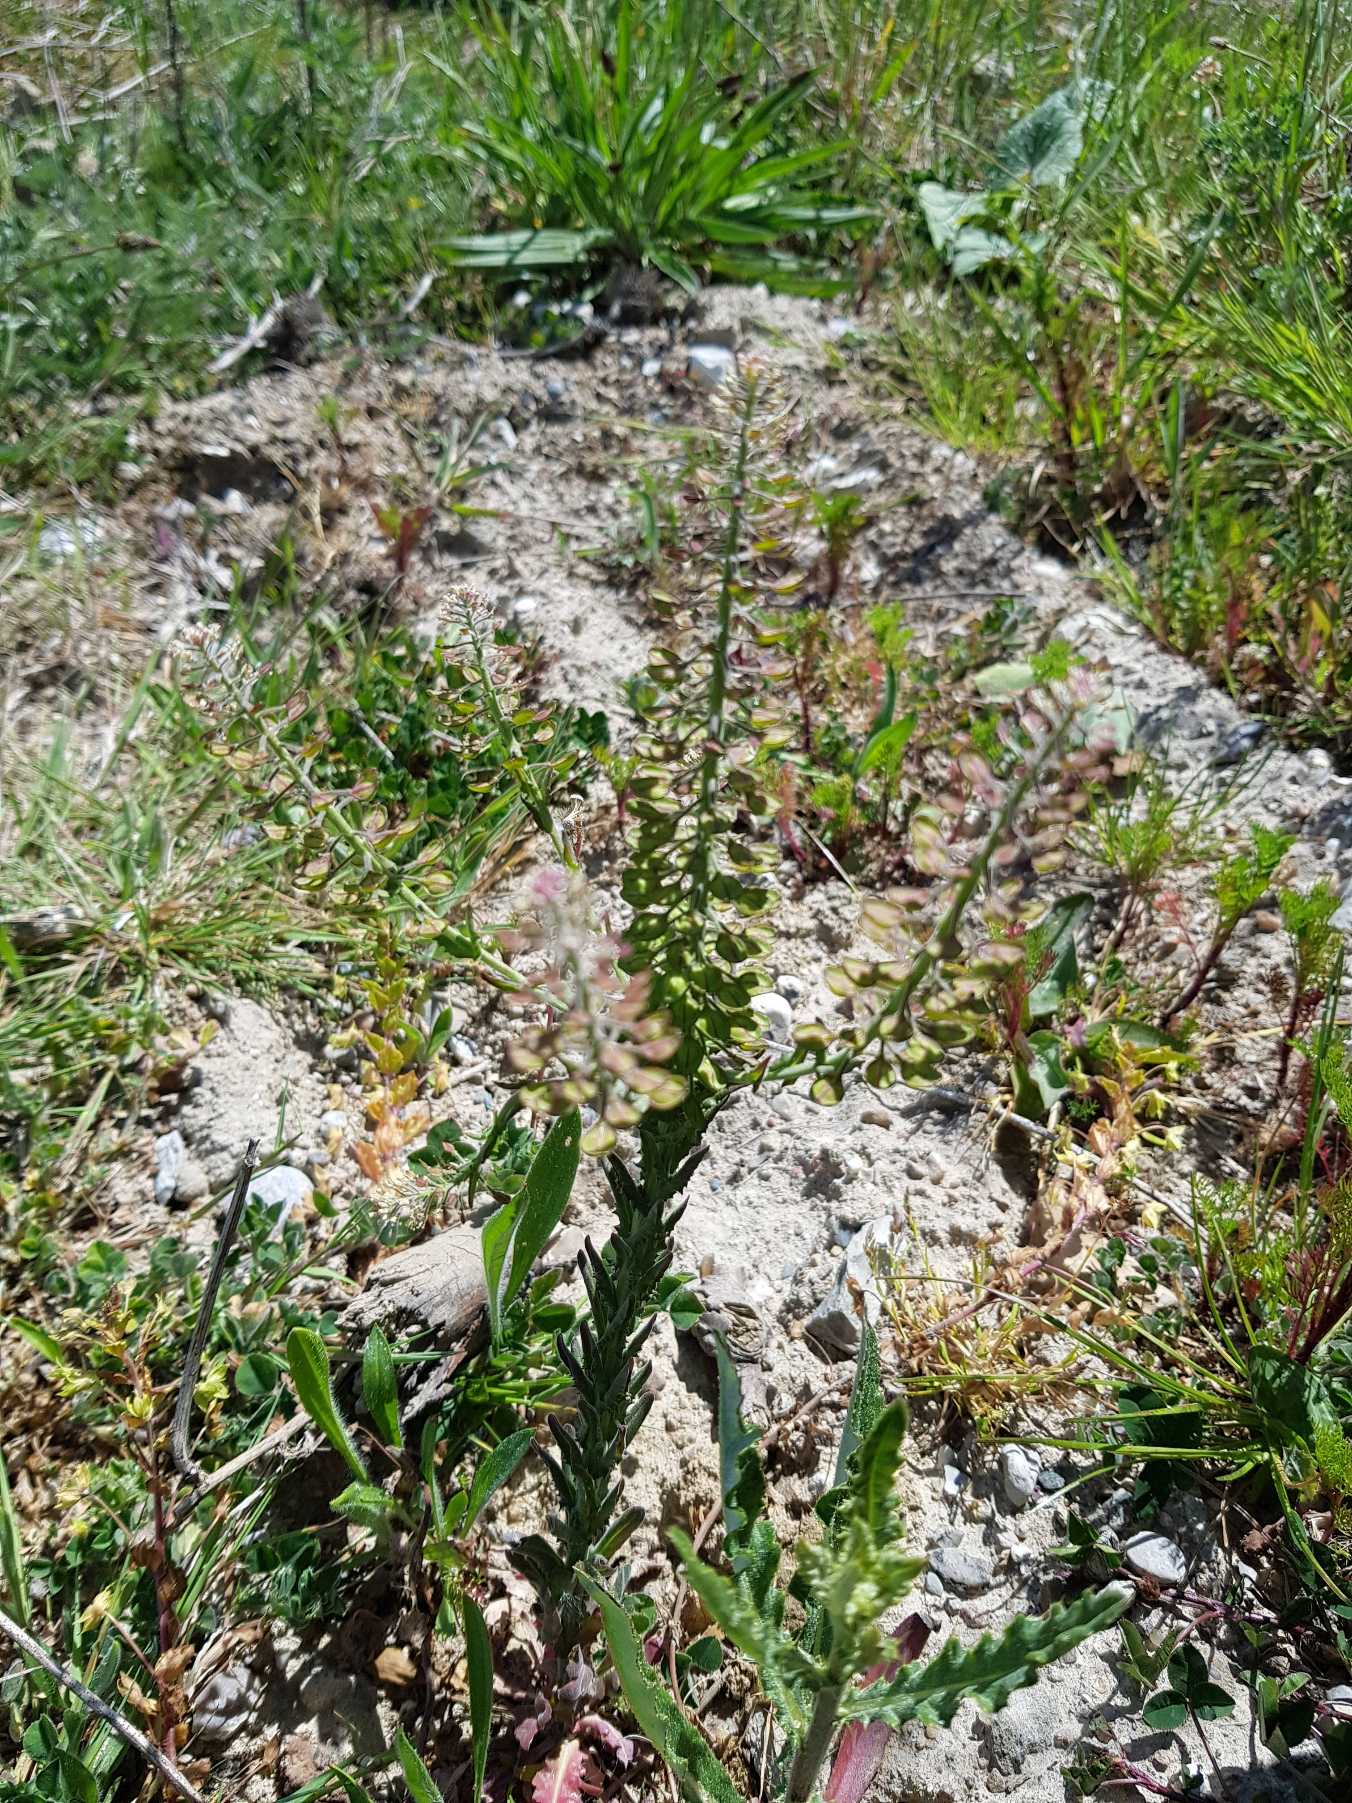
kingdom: Plantae
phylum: Tracheophyta
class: Magnoliopsida
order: Brassicales
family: Brassicaceae
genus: Lepidium
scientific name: Lepidium campestre
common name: Salomons lysestage
